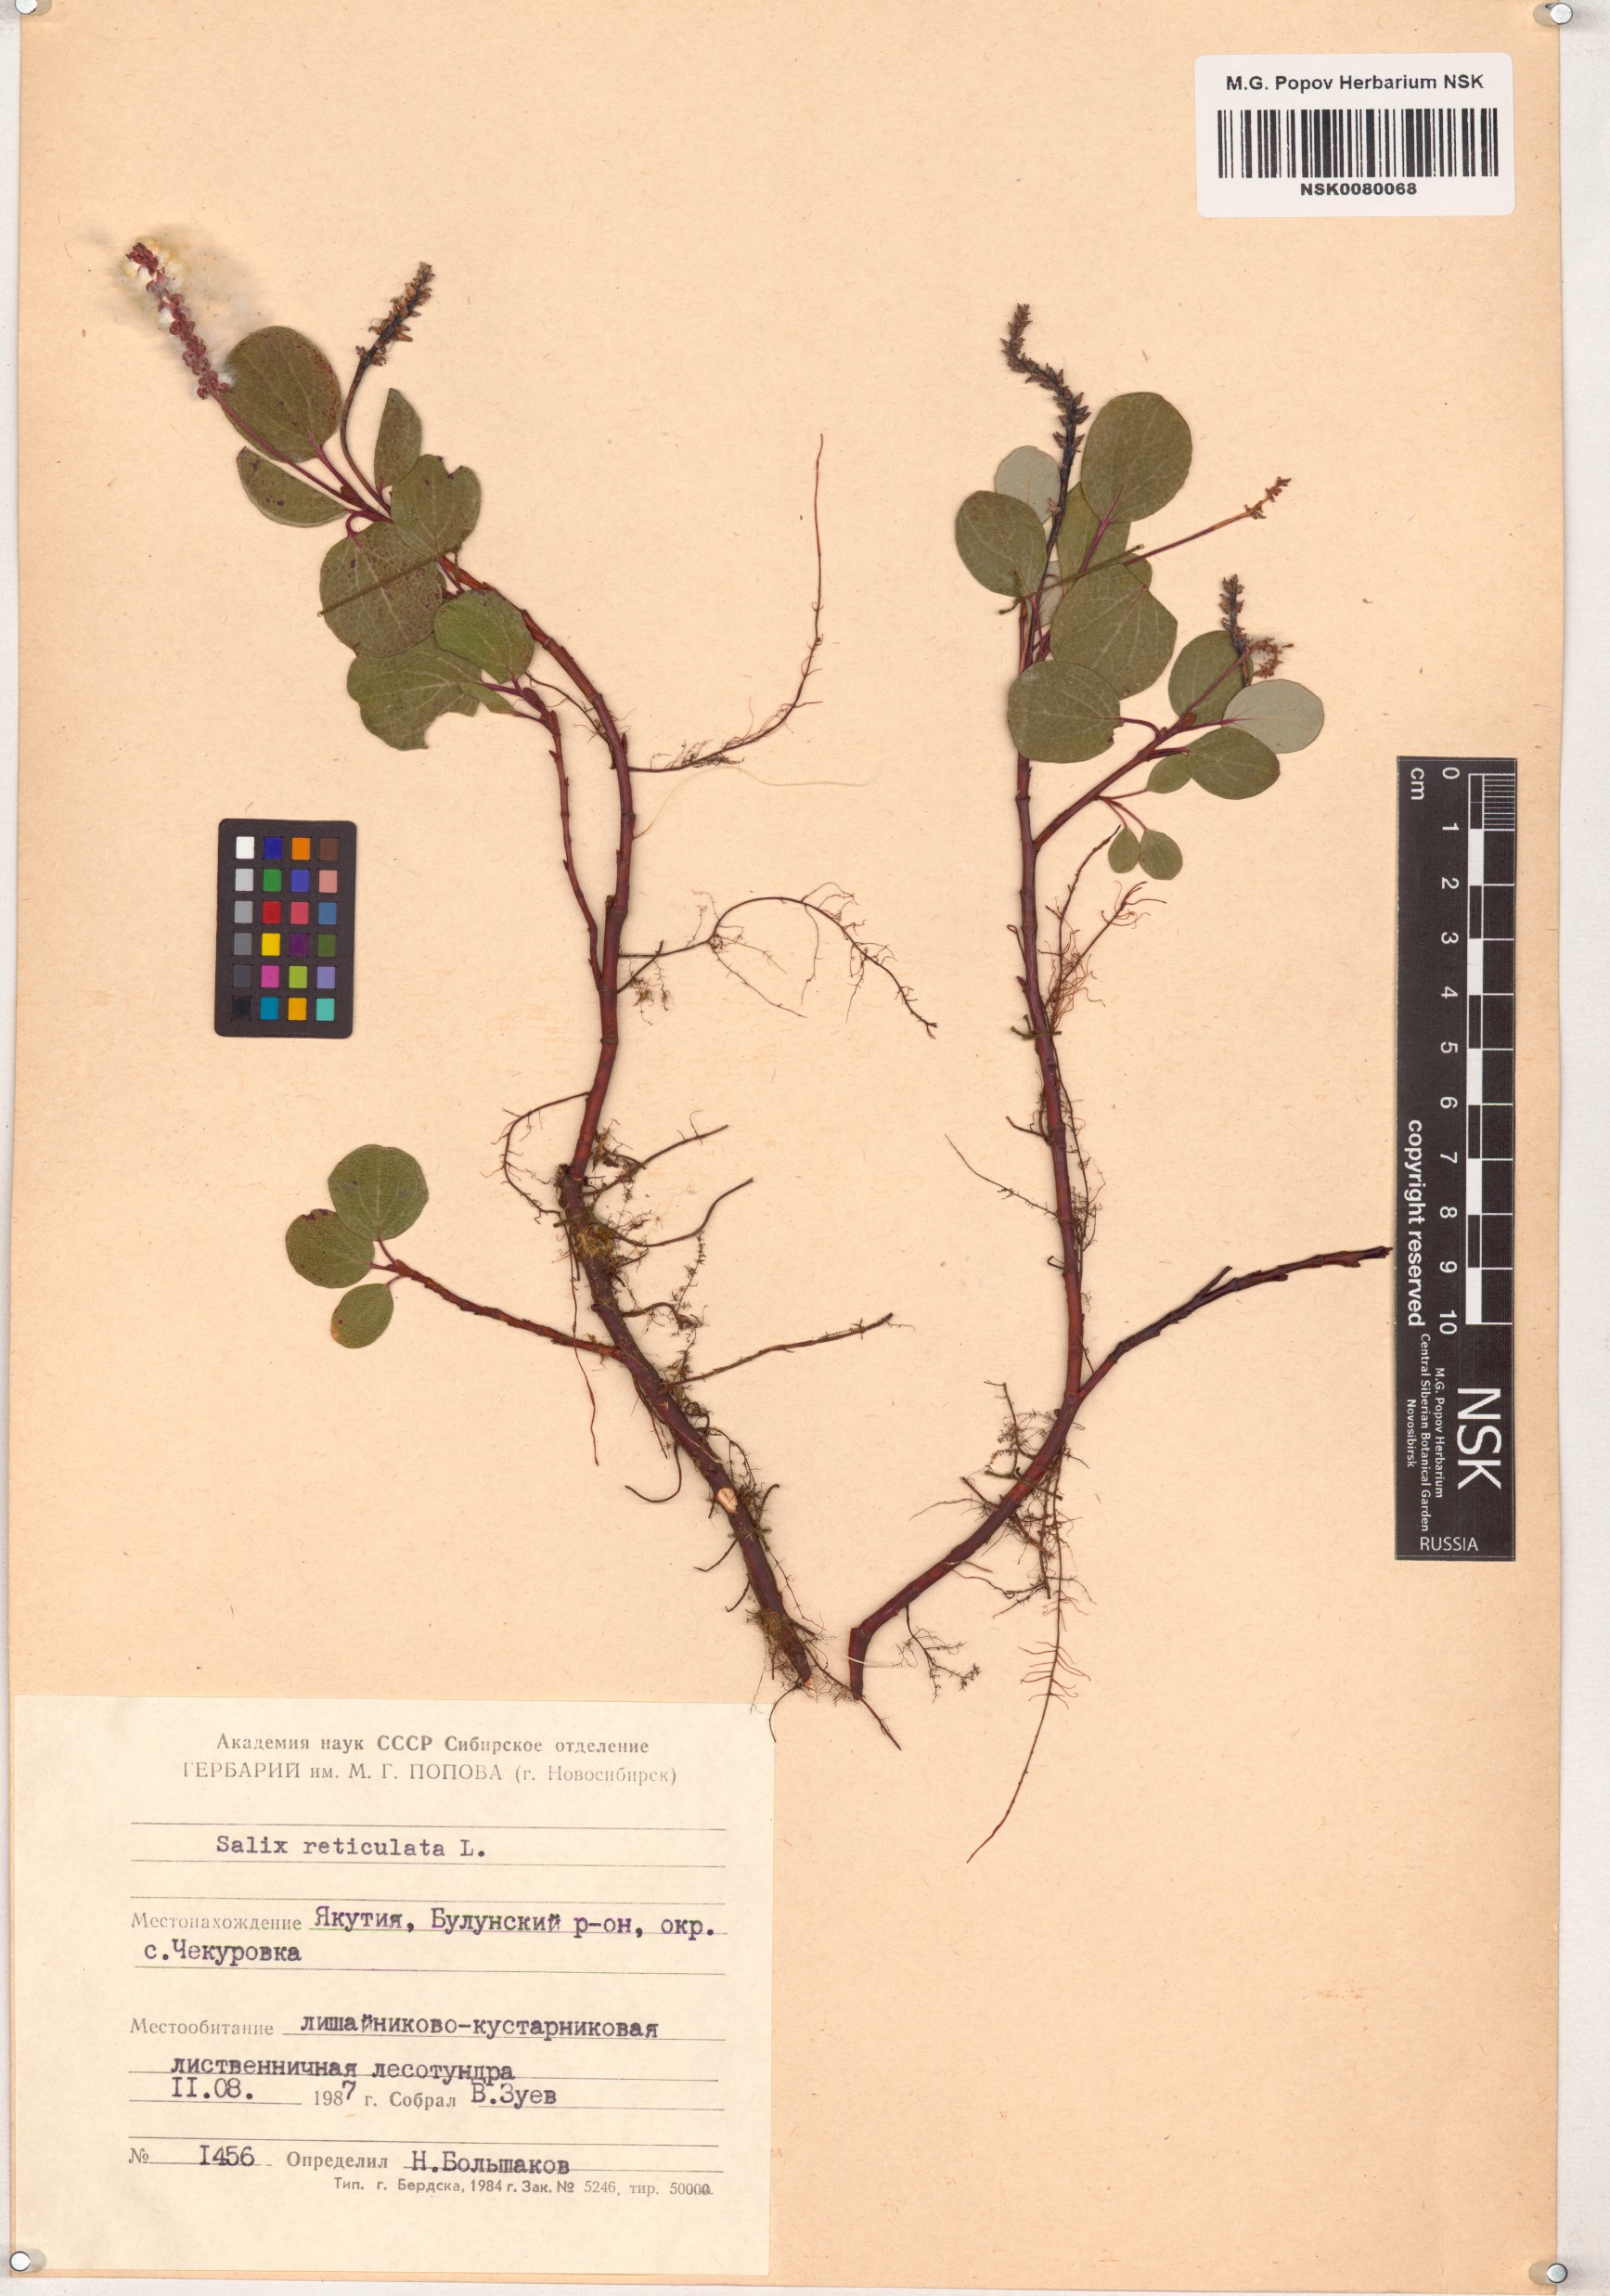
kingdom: Plantae
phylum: Tracheophyta
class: Magnoliopsida
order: Malpighiales
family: Salicaceae
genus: Salix
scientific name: Salix reticulata
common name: Net-leaved willow
